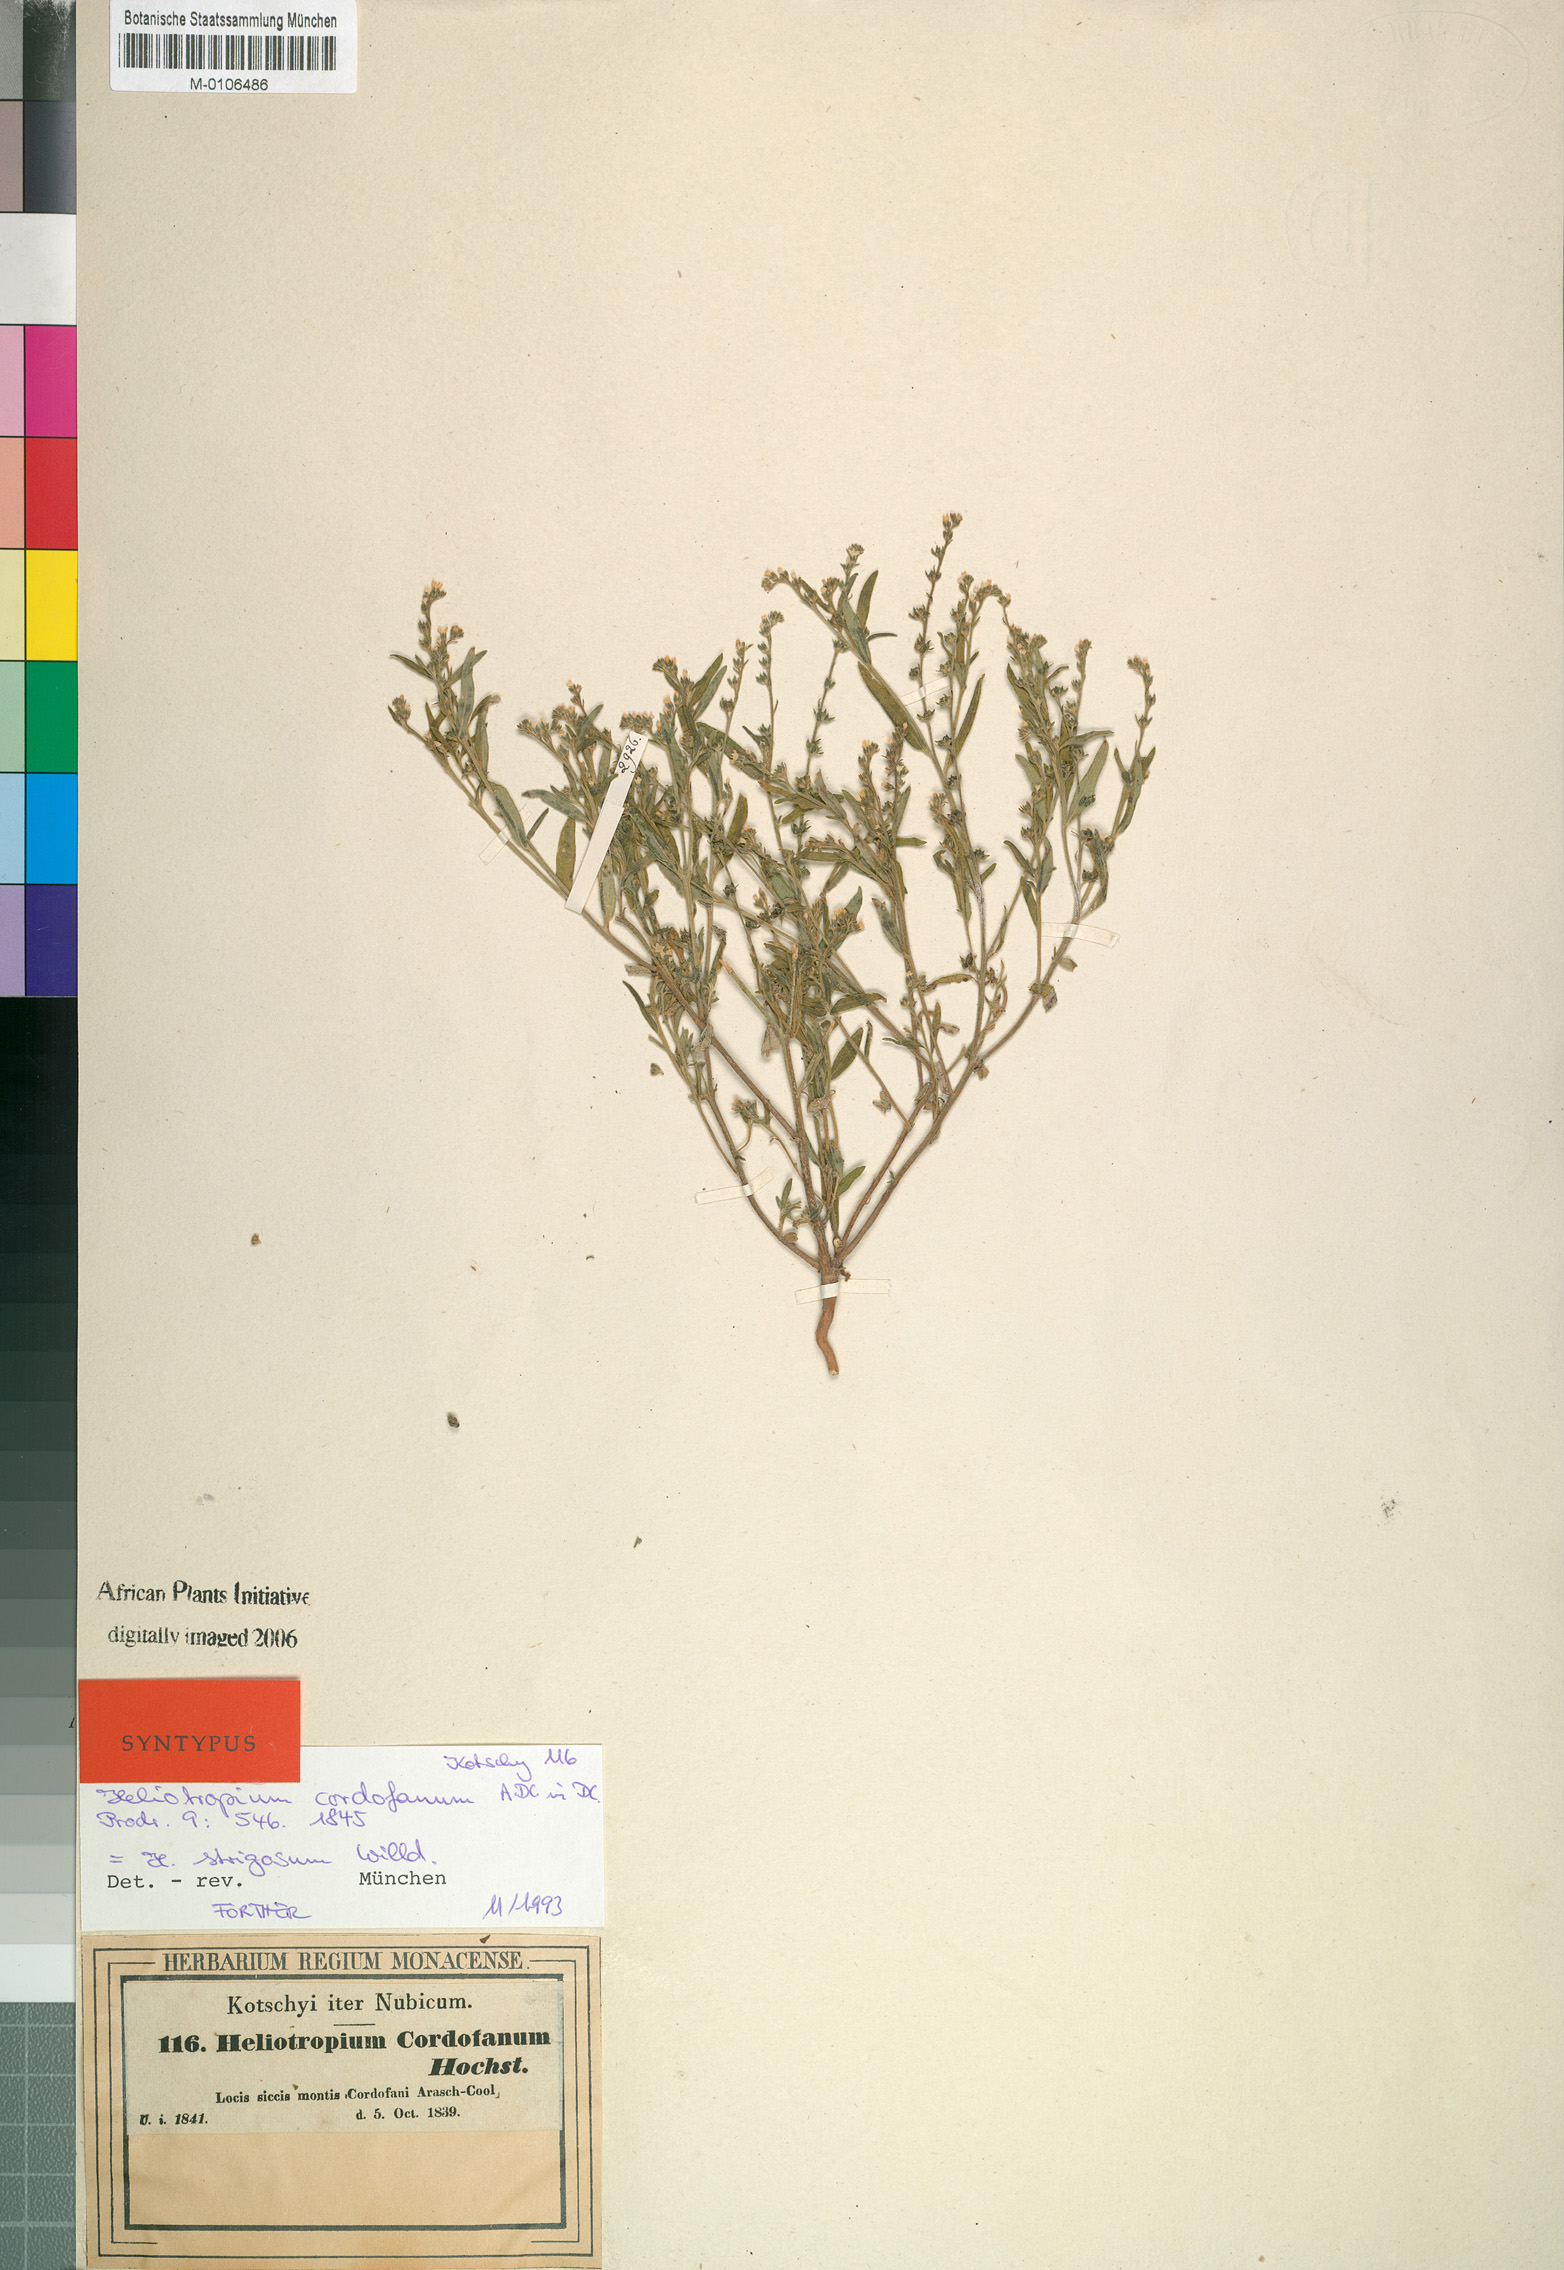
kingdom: Plantae
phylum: Tracheophyta
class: Magnoliopsida
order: Boraginales
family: Heliotropiaceae
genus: Euploca
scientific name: Euploca strigosa
